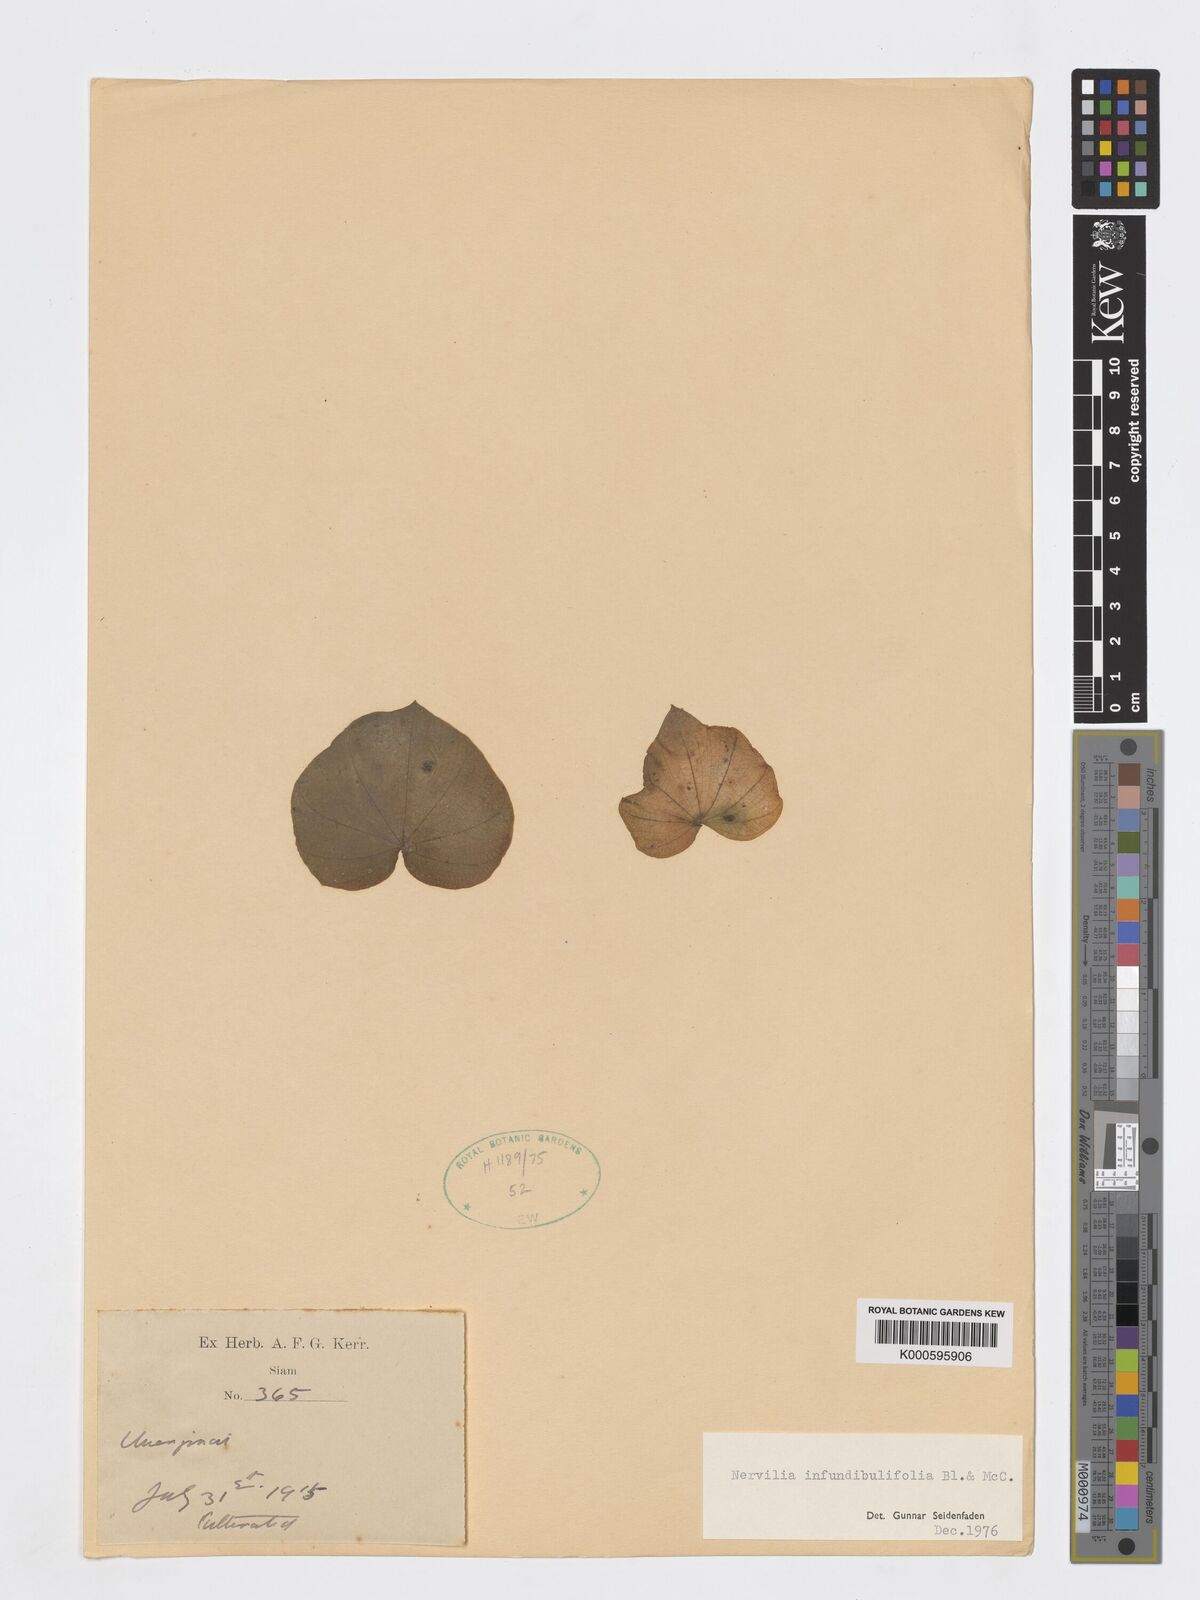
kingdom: Plantae
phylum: Tracheophyta
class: Liliopsida
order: Asparagales
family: Orchidaceae
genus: Nervilia
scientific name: Nervilia infundibulifolia
